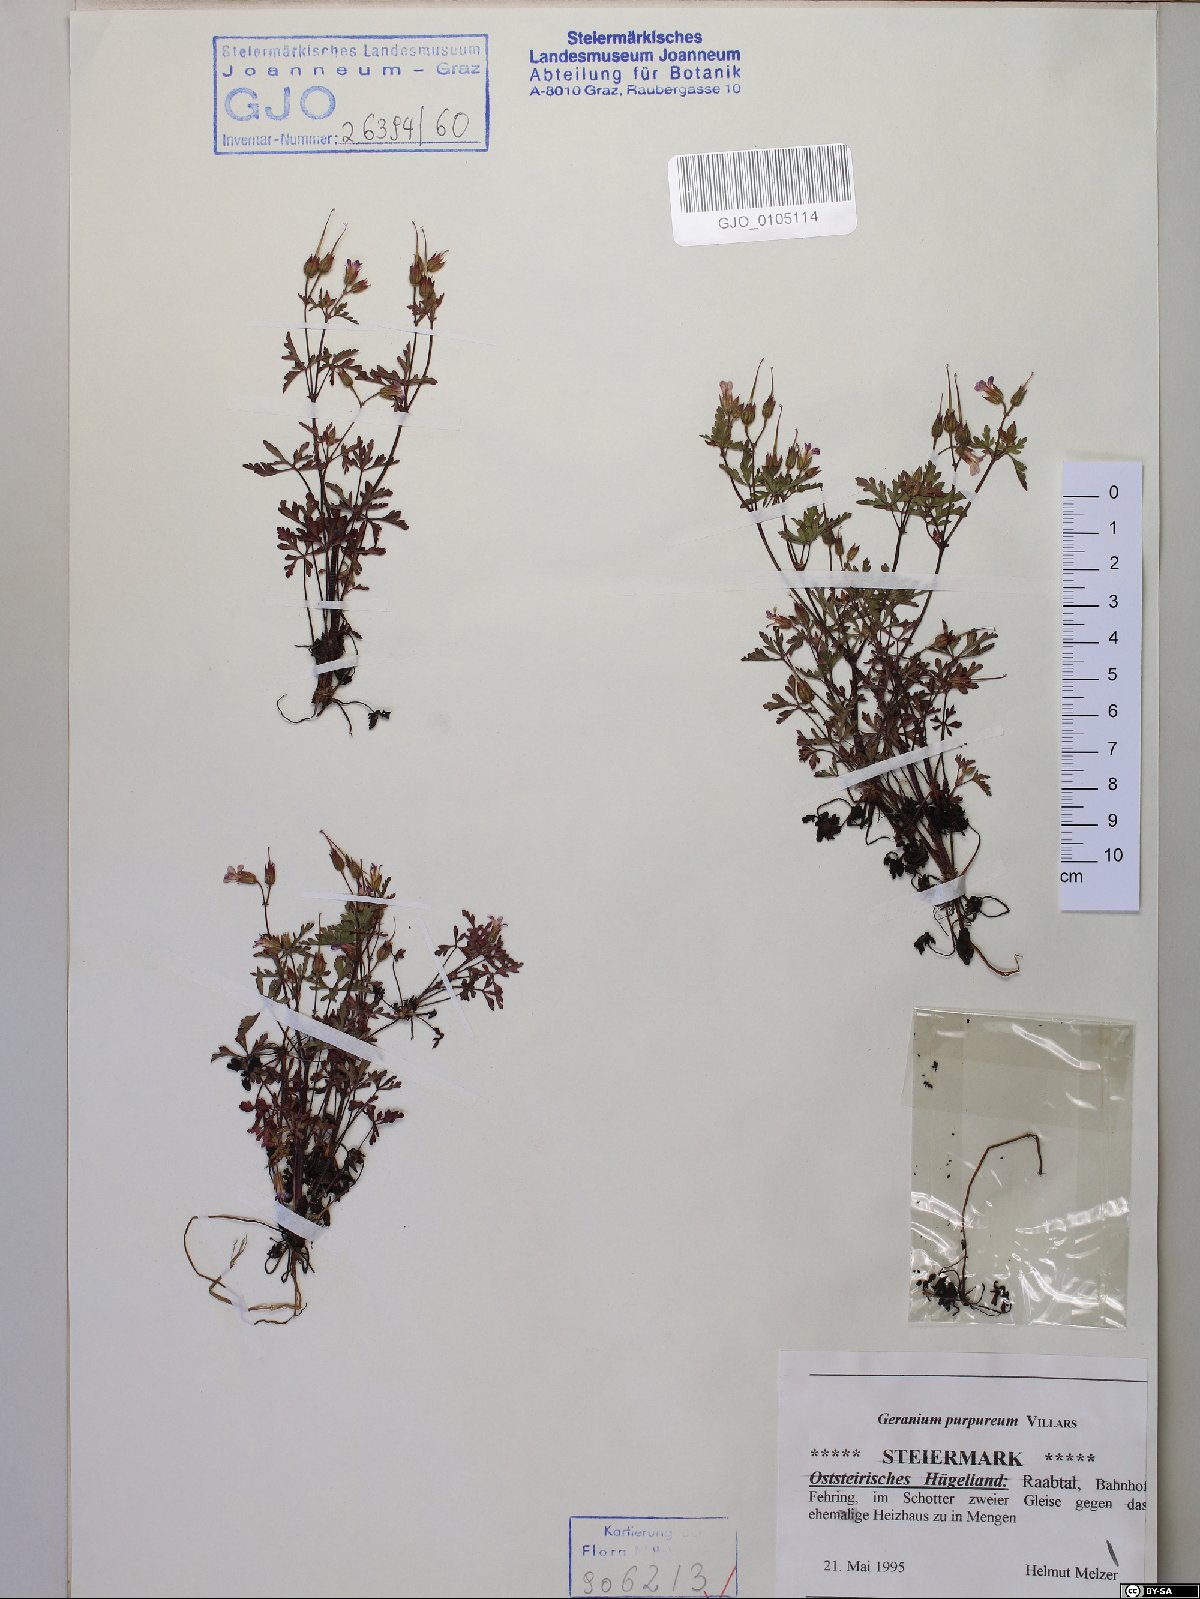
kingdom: Plantae
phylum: Tracheophyta
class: Magnoliopsida
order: Geraniales
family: Geraniaceae
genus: Geranium
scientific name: Geranium purpureum
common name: Little-robin
